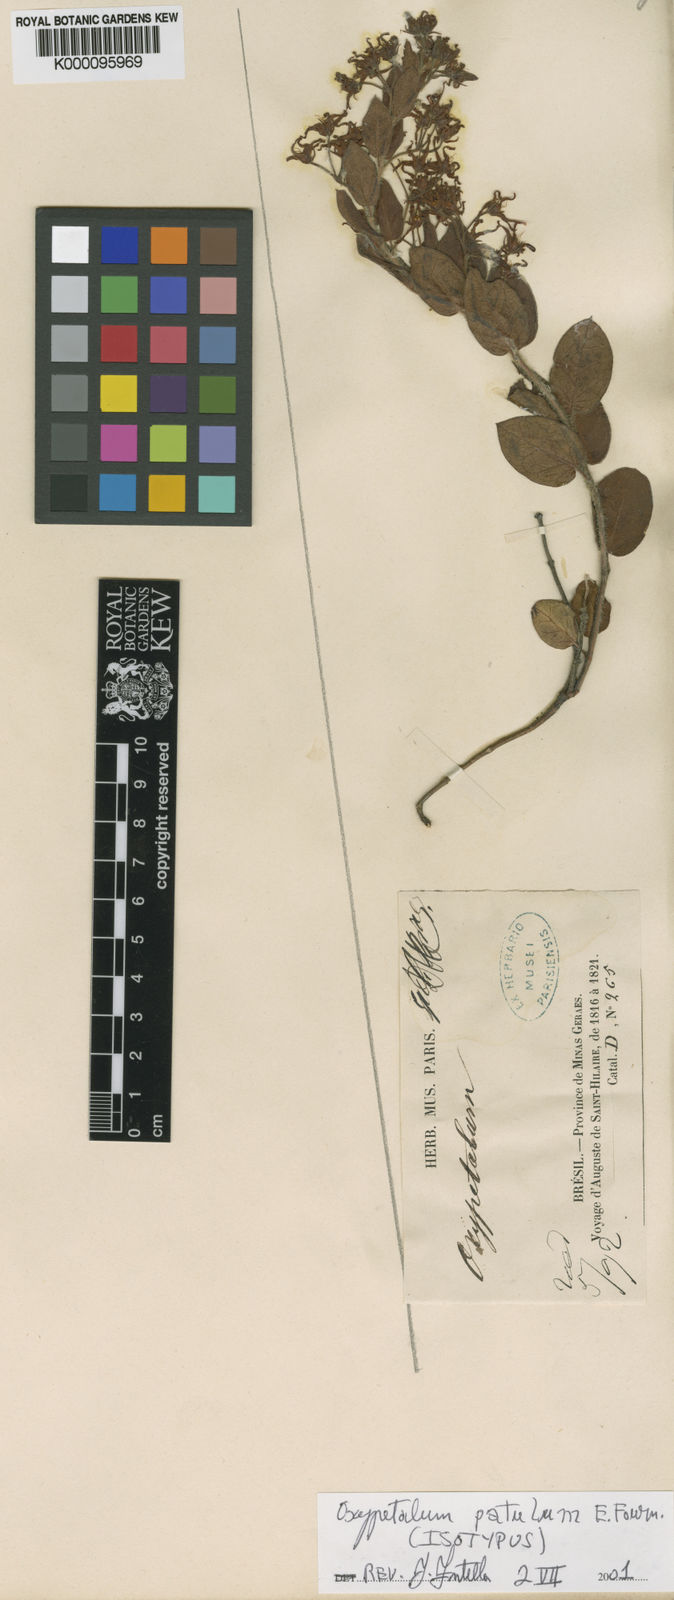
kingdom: Plantae
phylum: Tracheophyta
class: Magnoliopsida
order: Gentianales
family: Apocynaceae
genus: Oxypetalum
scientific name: Oxypetalum patulum
